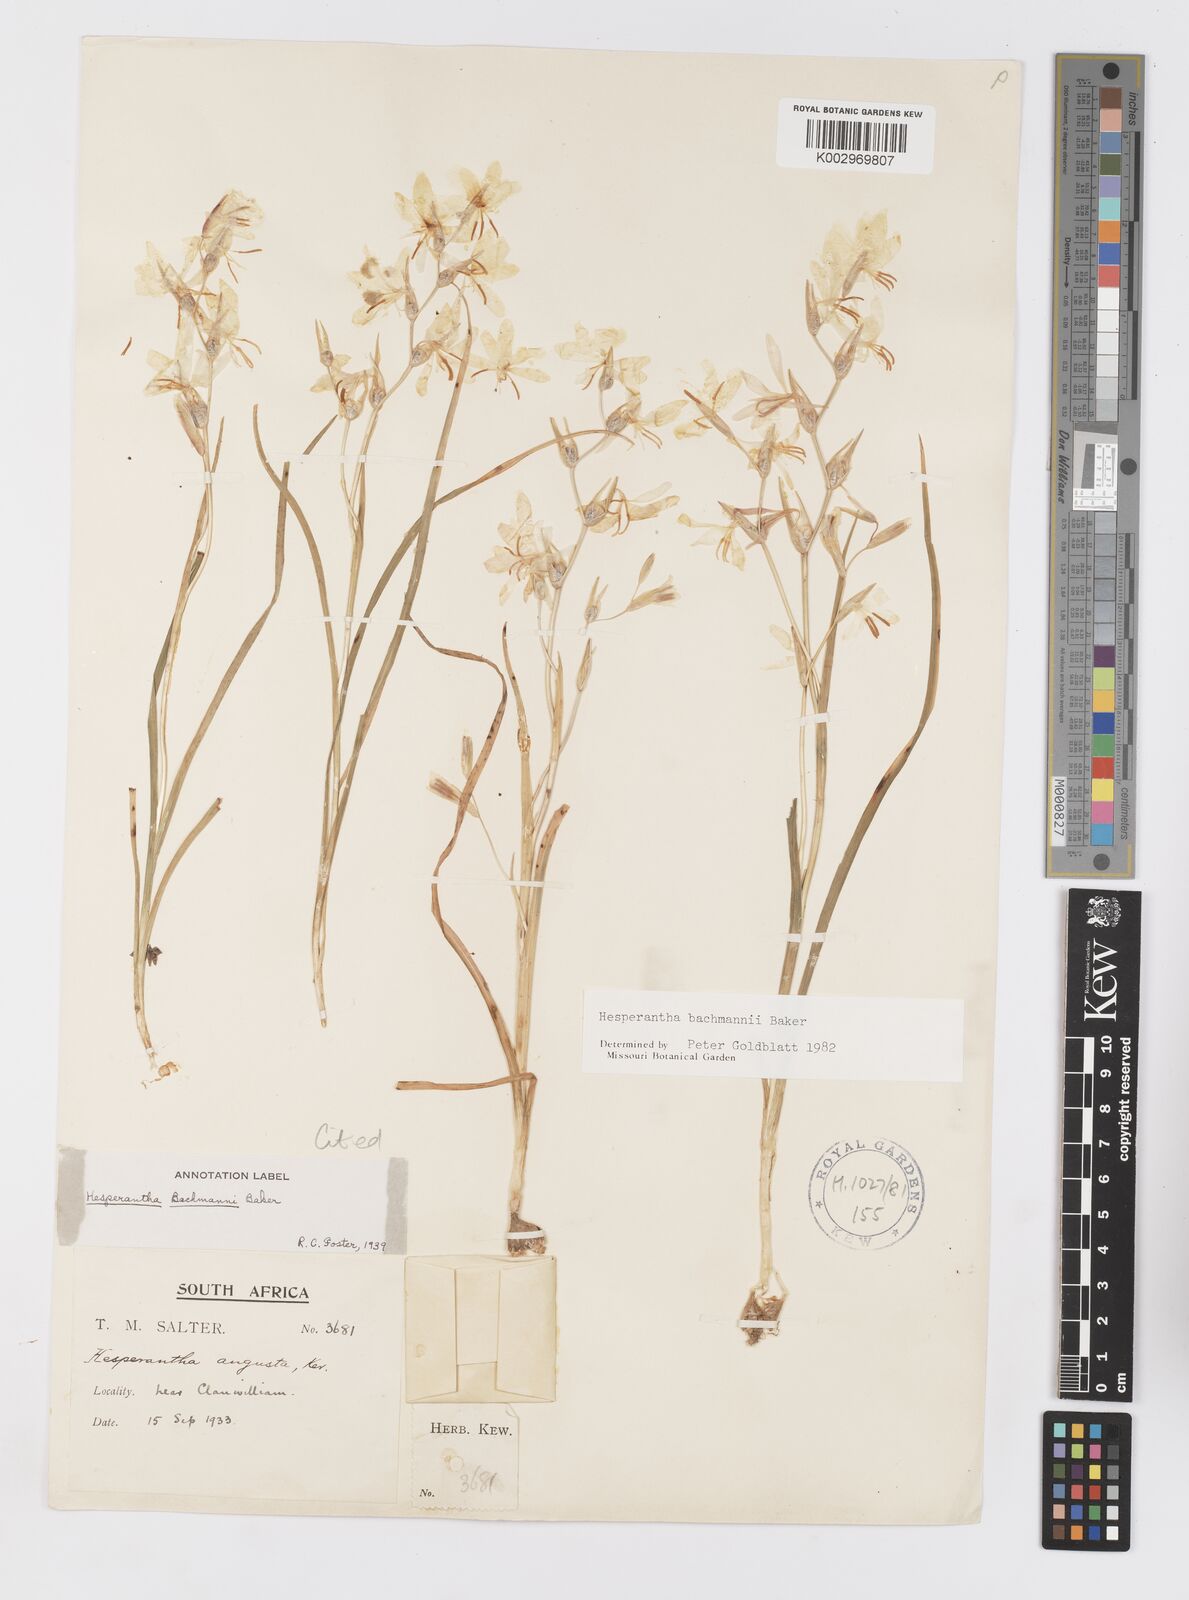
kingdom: Plantae
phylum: Tracheophyta
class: Liliopsida
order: Asparagales
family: Iridaceae
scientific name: Iridaceae
